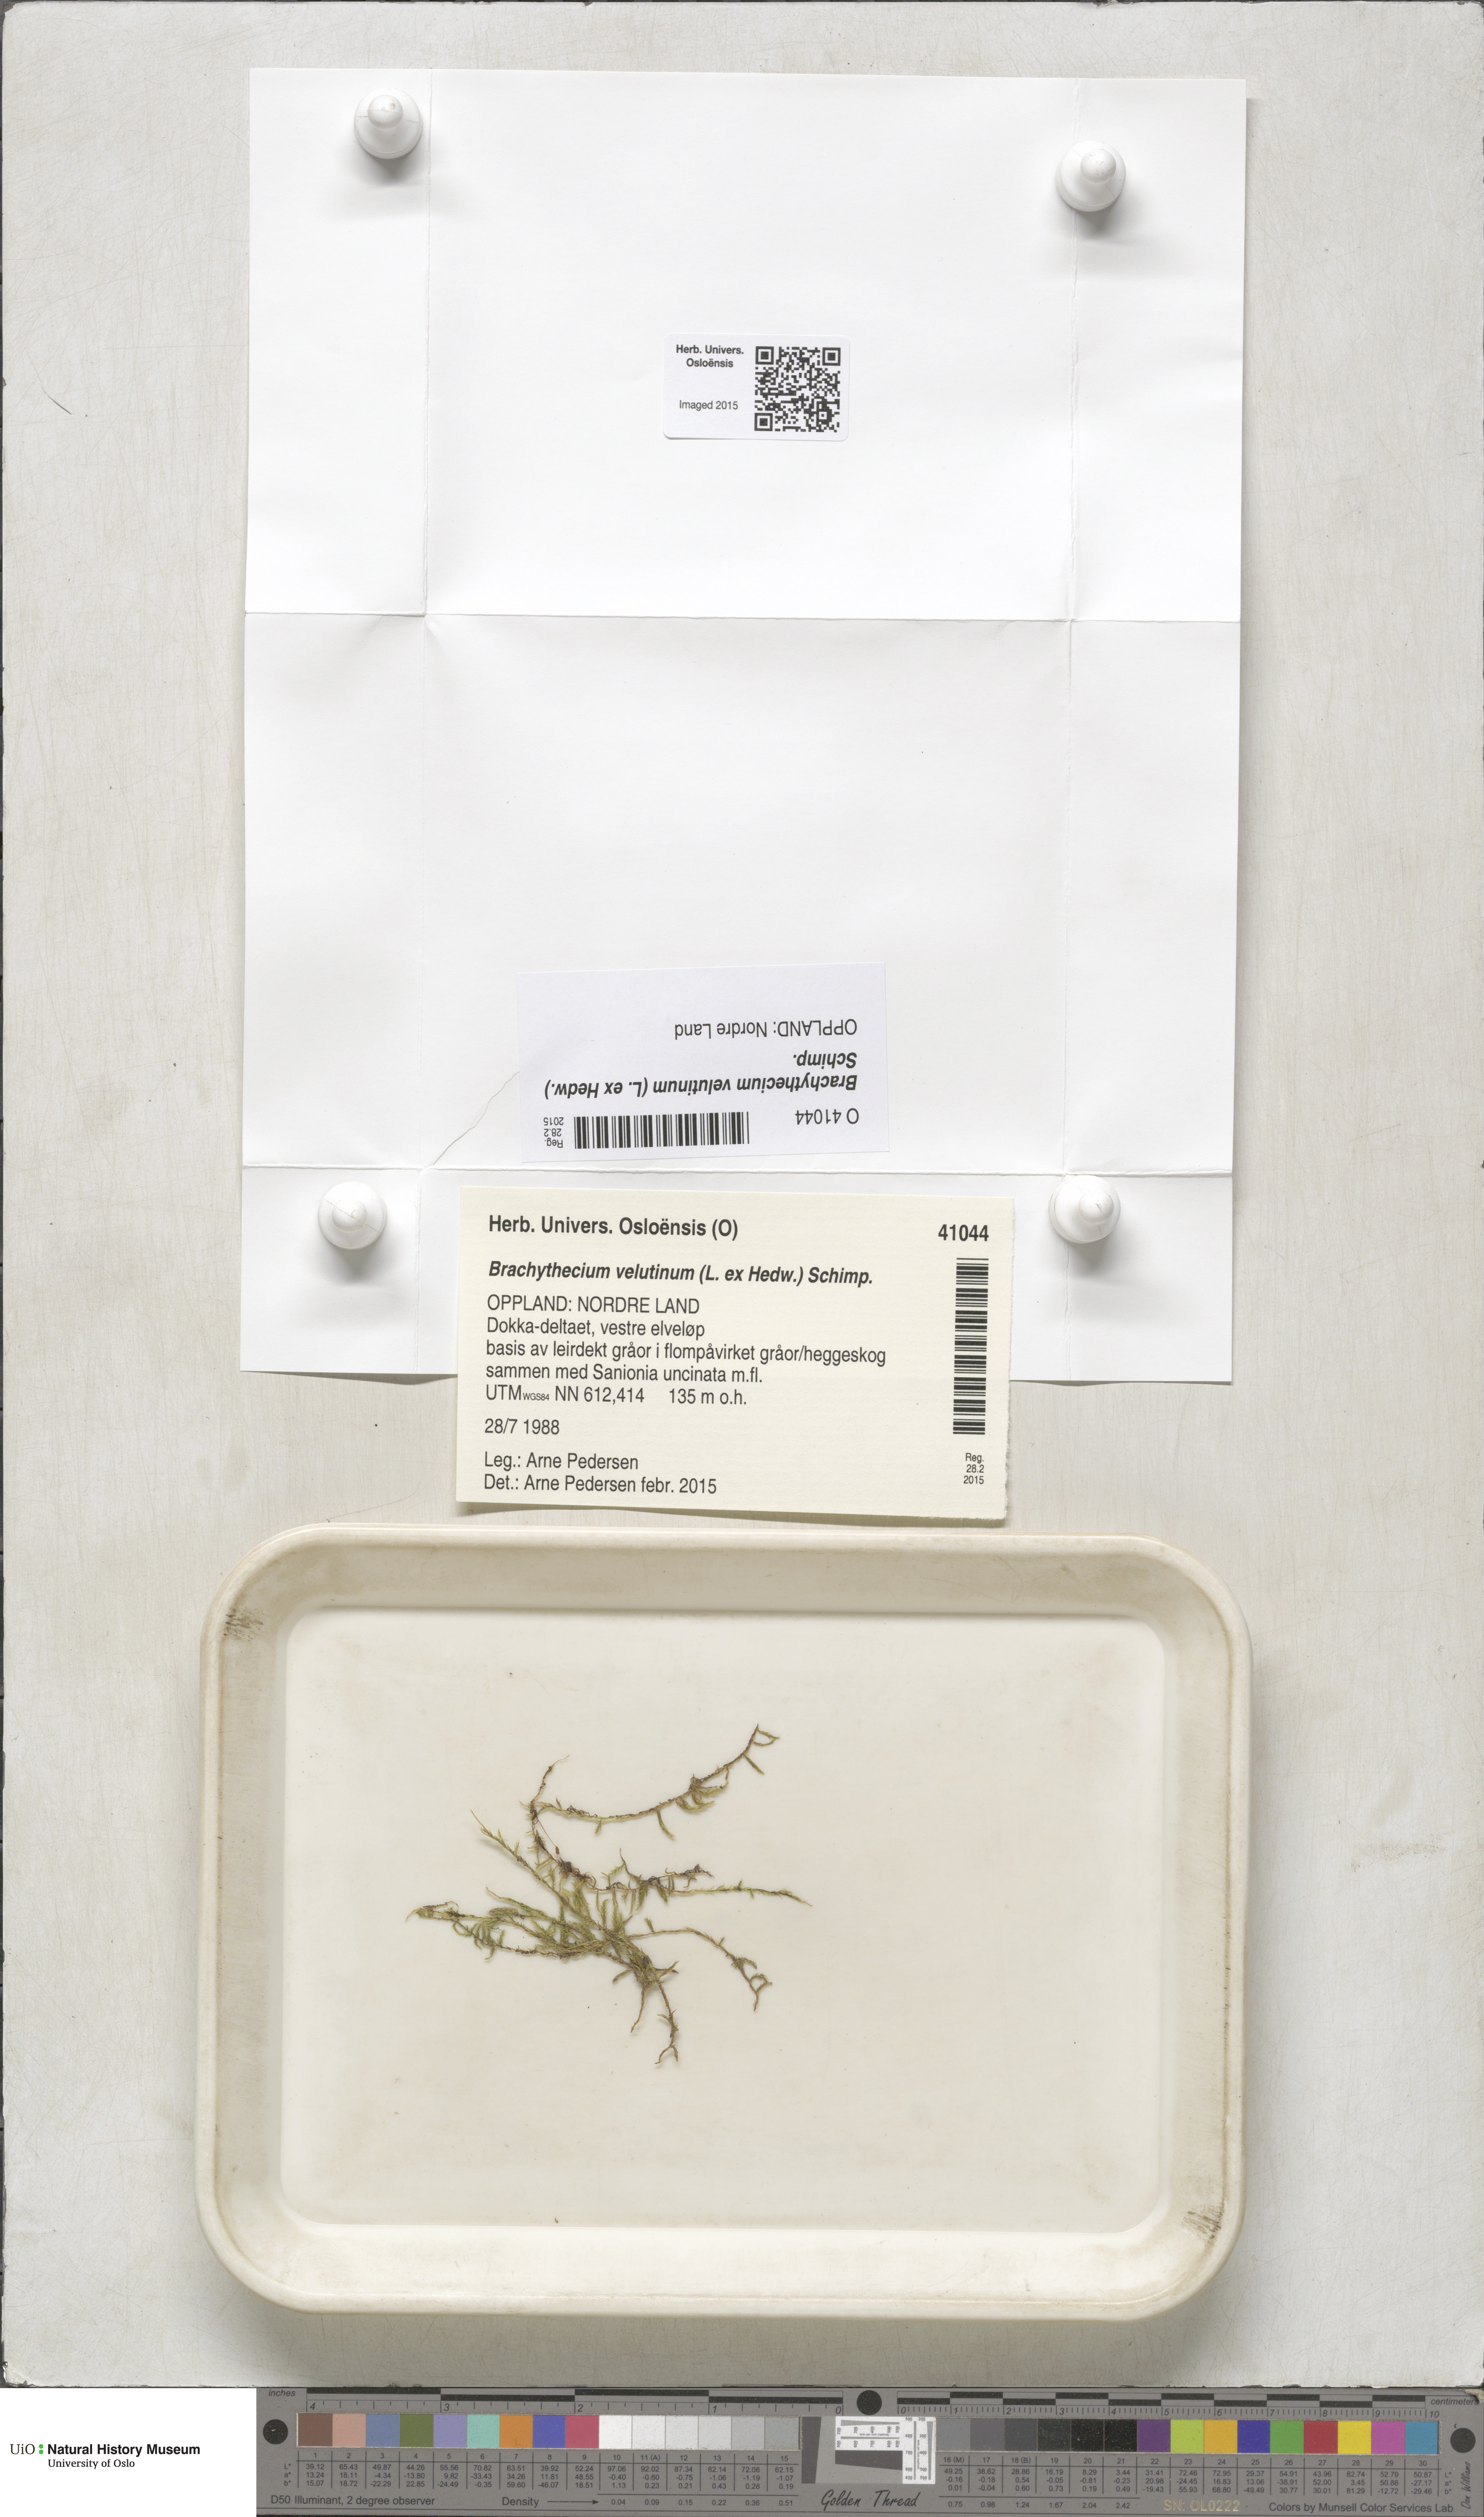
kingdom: Plantae
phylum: Bryophyta
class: Bryopsida
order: Hypnales
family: Brachytheciaceae
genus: Brachytheciastrum
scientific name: Brachytheciastrum velutinum
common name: Velvet feather-moss
